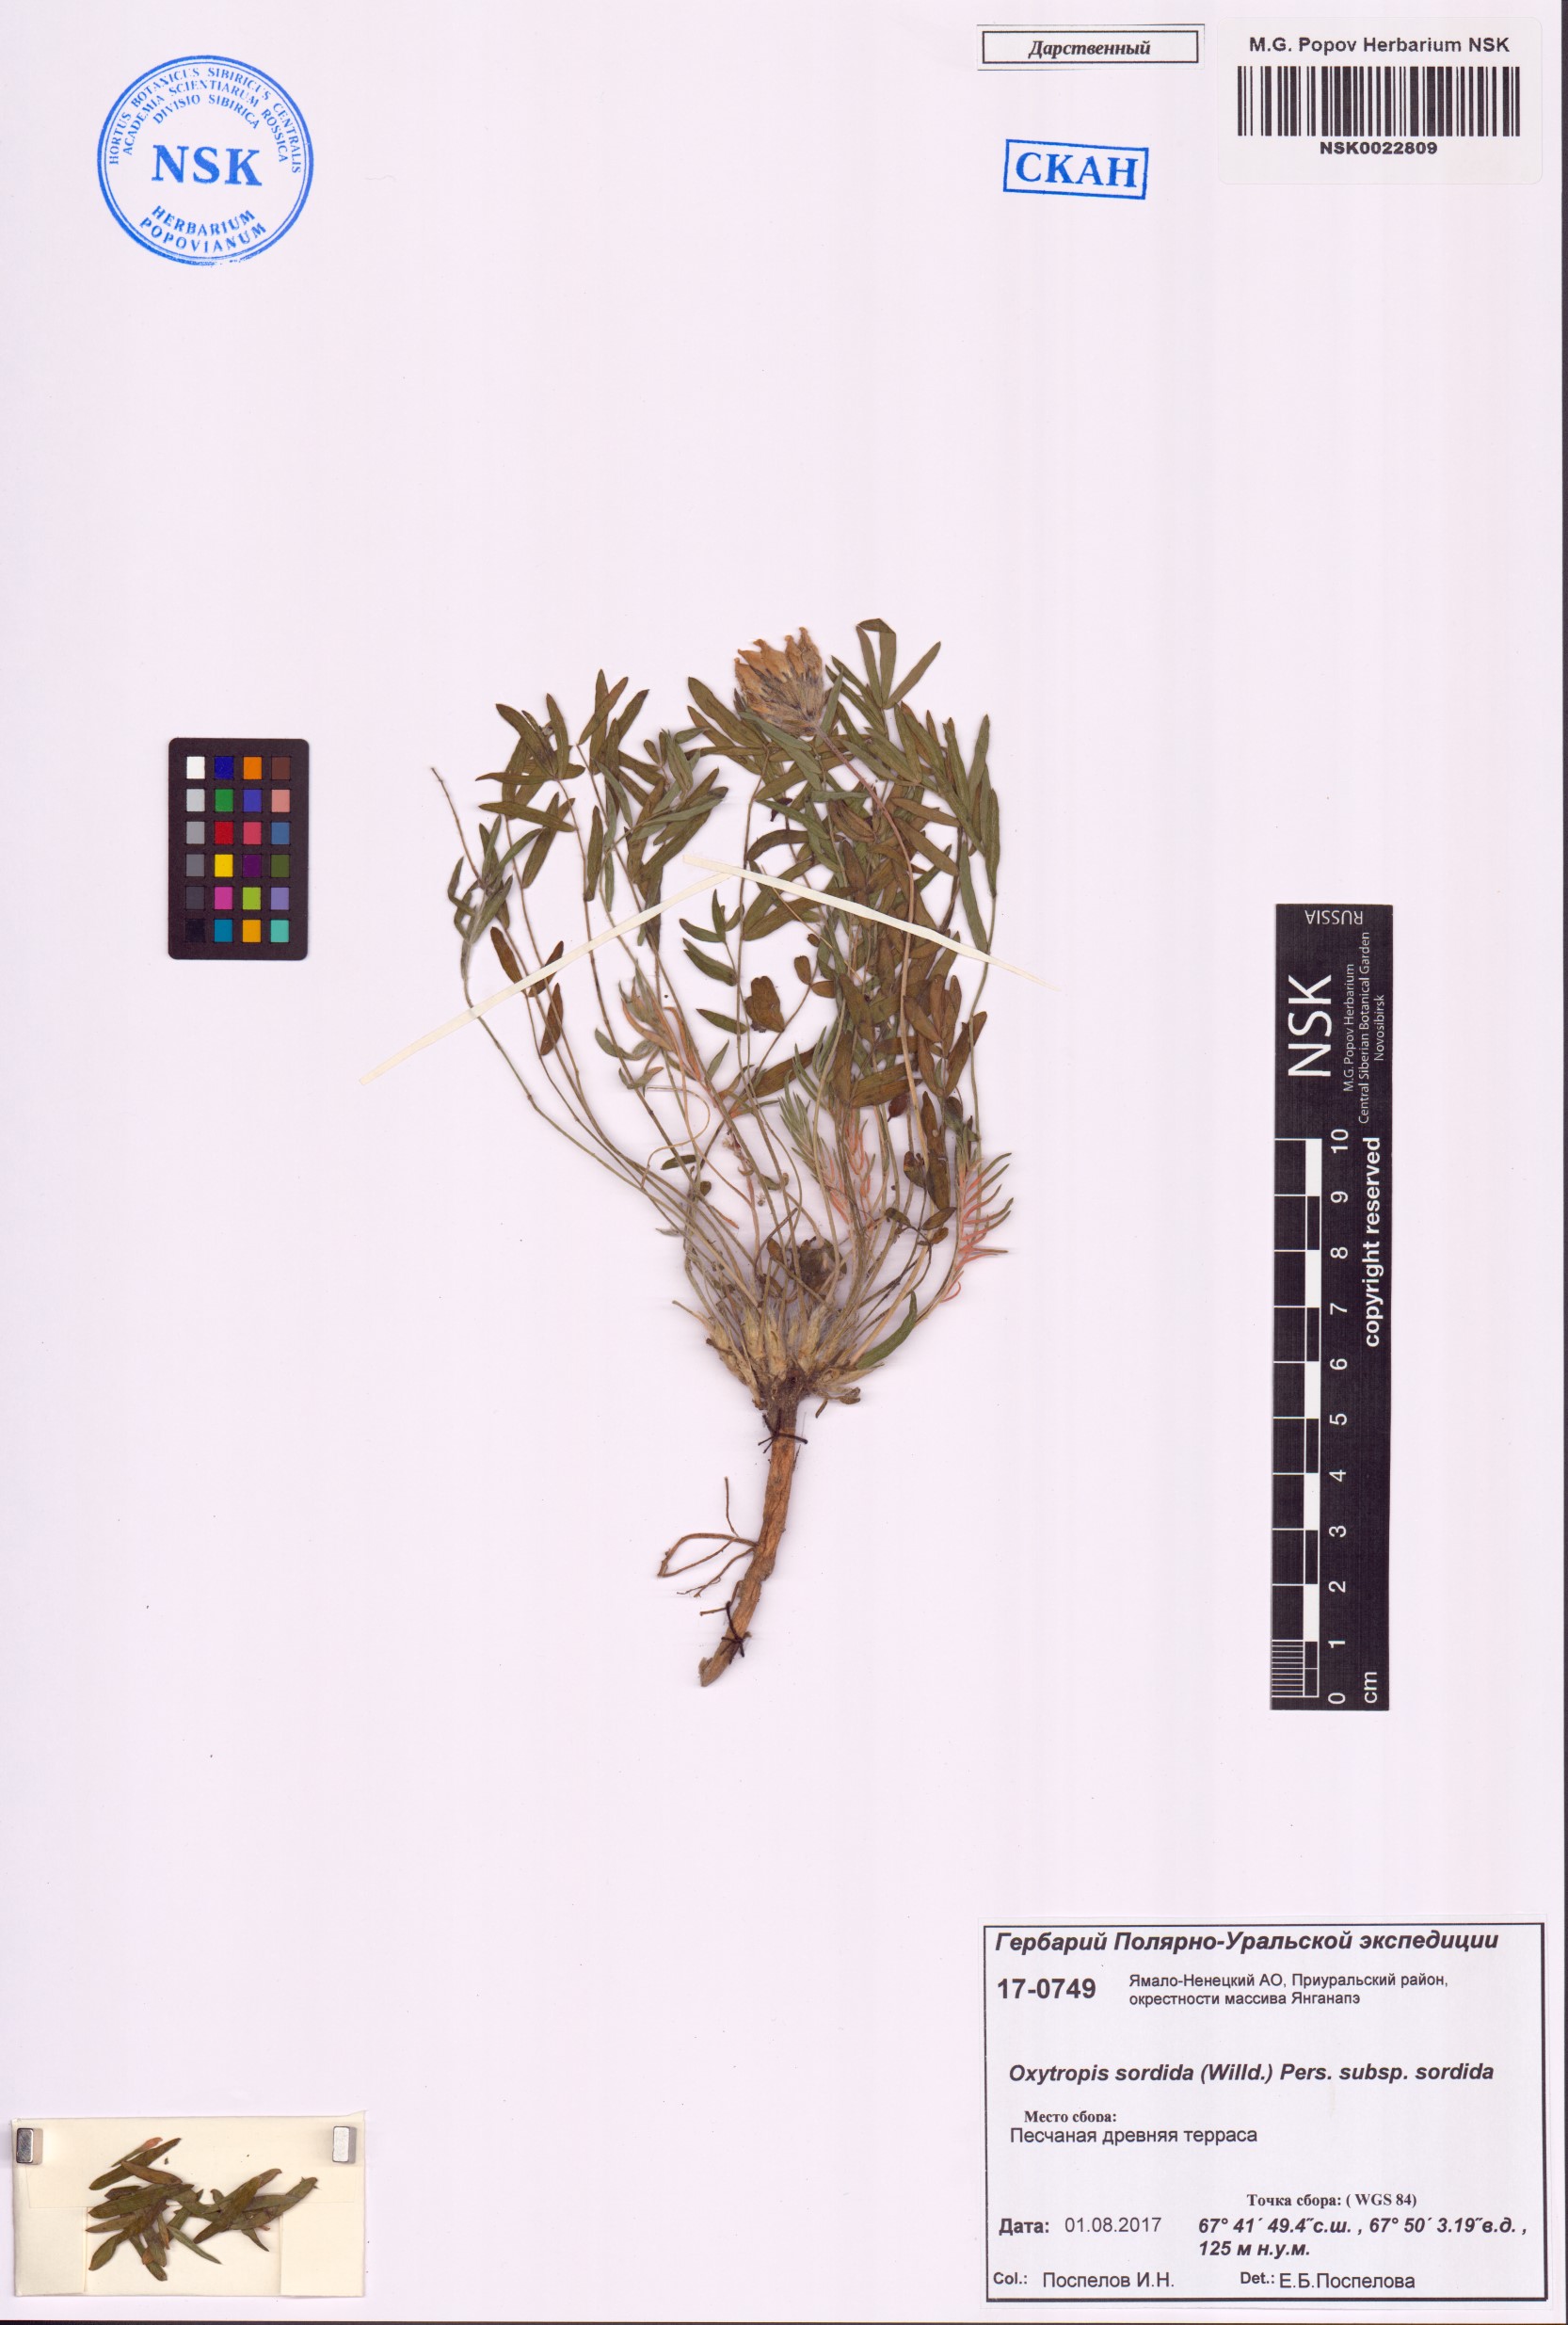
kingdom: Plantae
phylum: Tracheophyta
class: Magnoliopsida
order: Fabales
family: Fabaceae
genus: Oxytropis
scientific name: Oxytropis sordida
